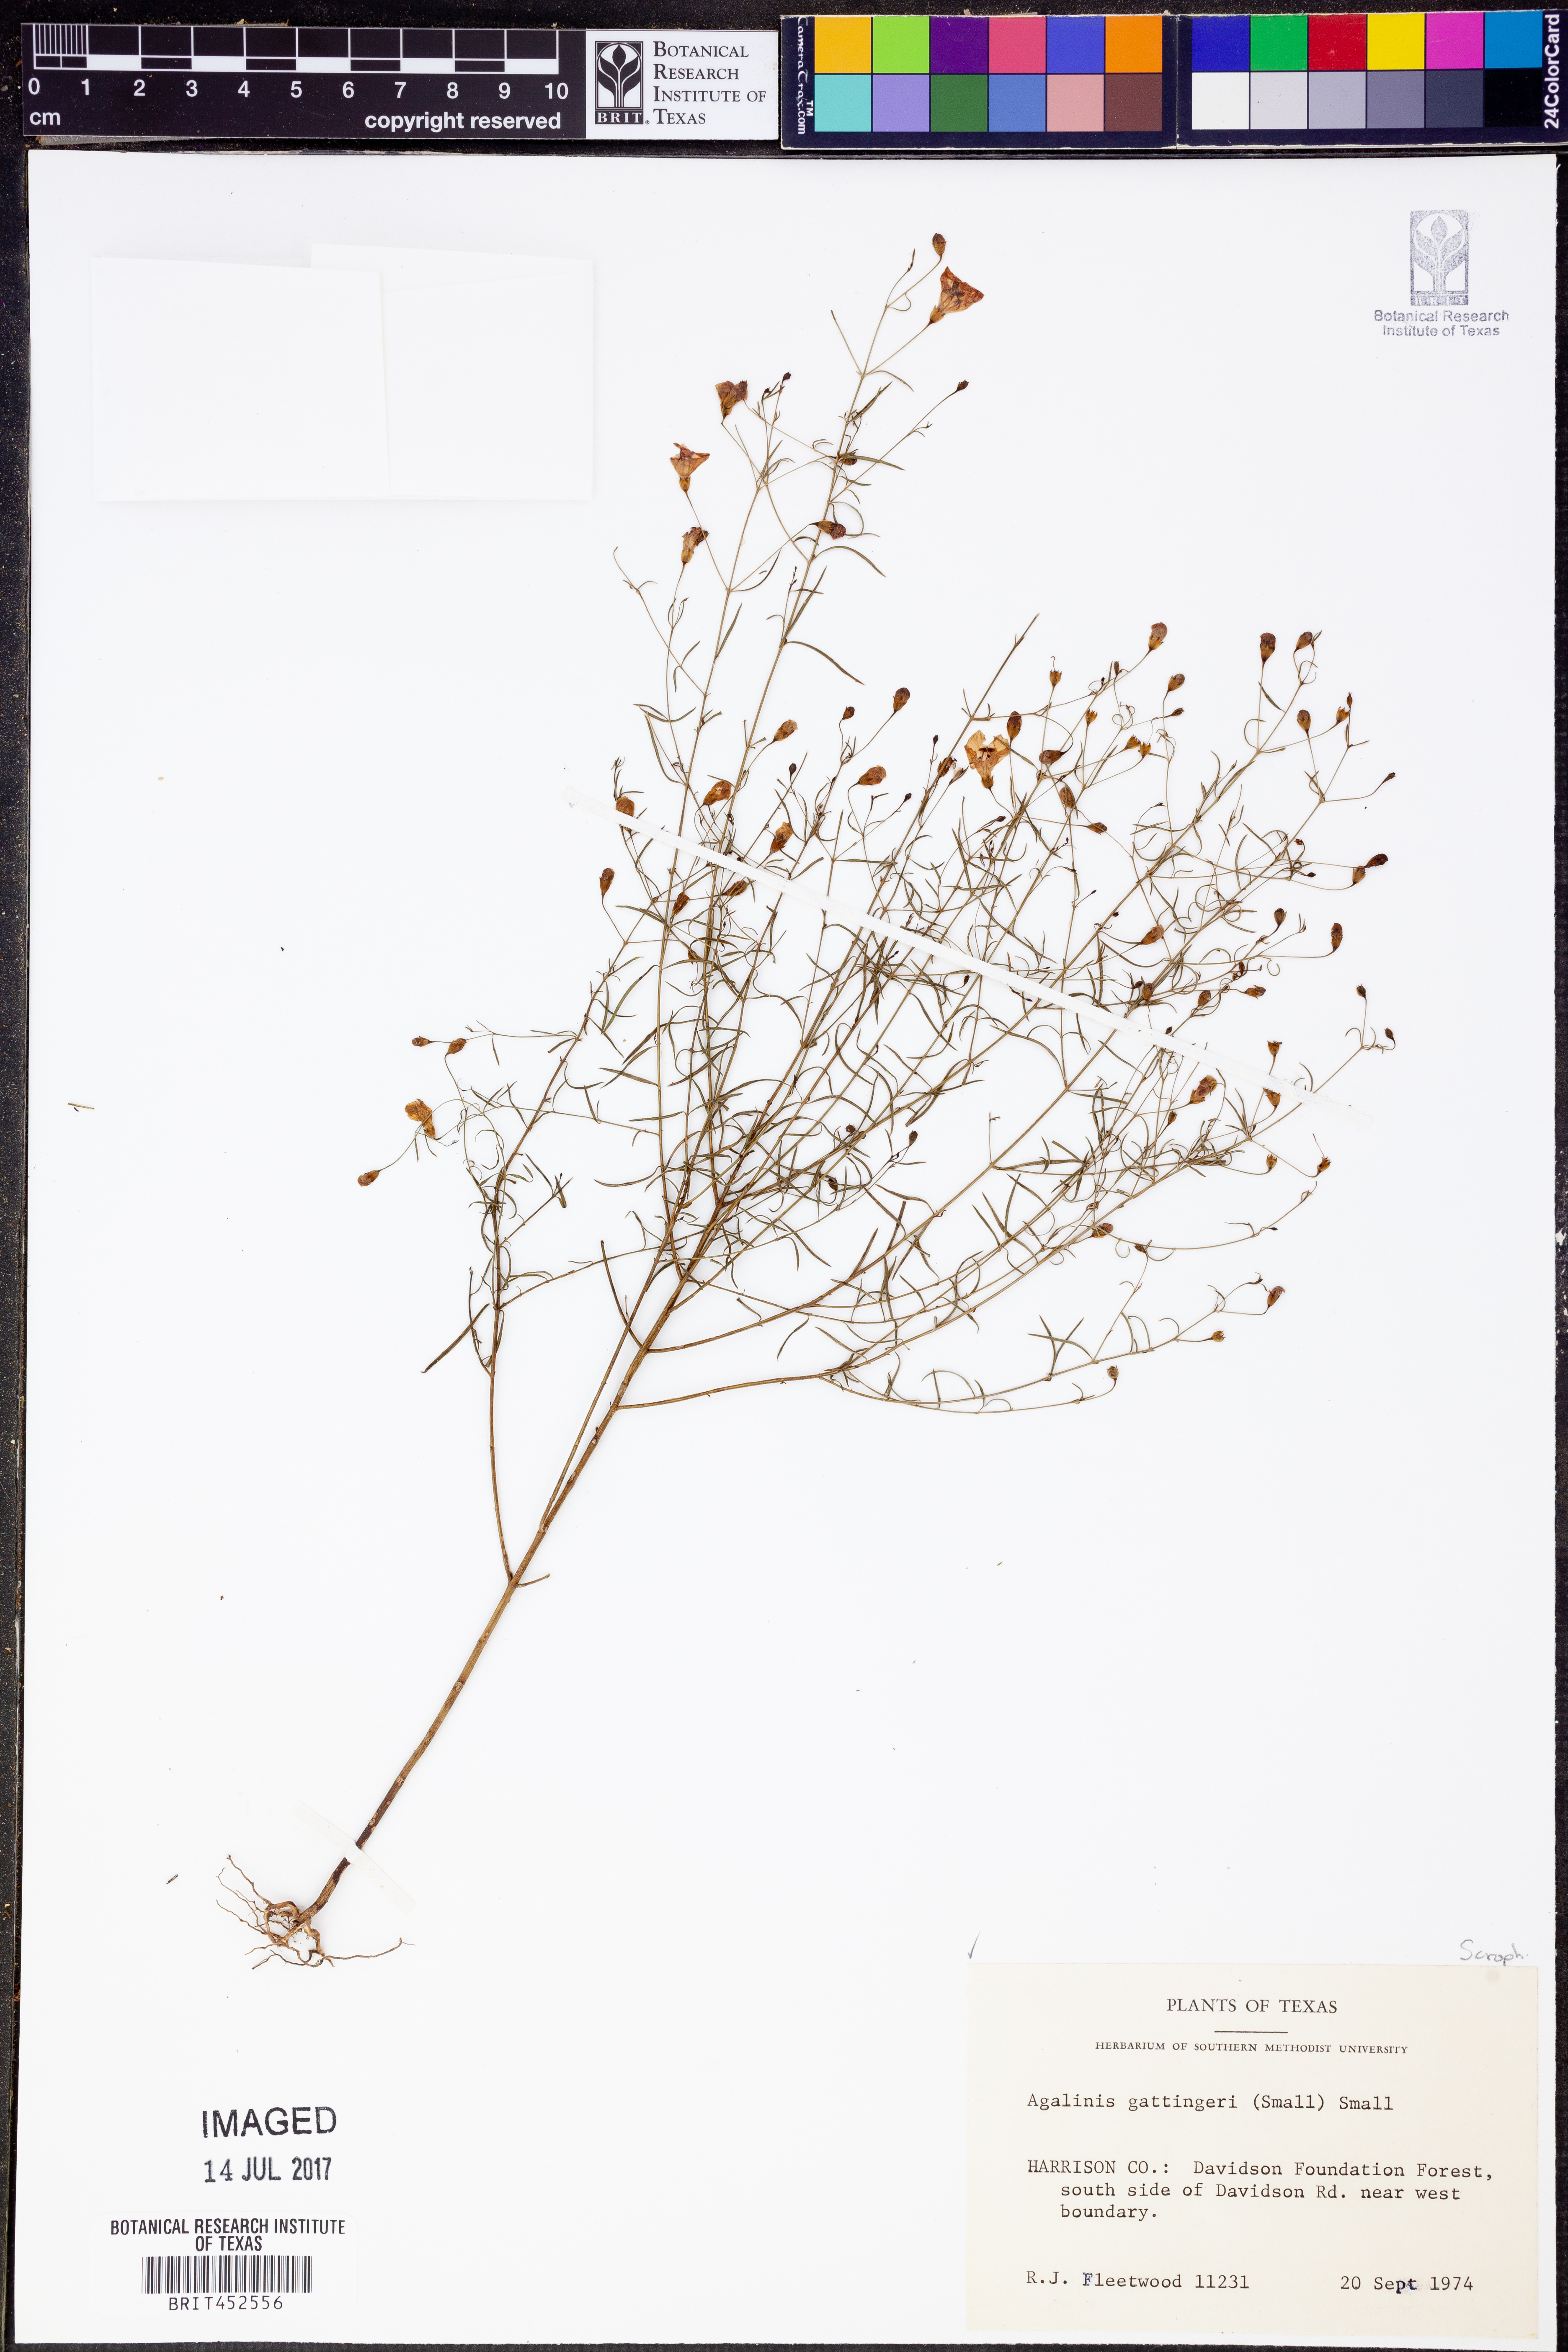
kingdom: Plantae
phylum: Tracheophyta
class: Magnoliopsida
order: Lamiales
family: Orobanchaceae
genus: Agalinis
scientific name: Agalinis gattingeri
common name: Gattinger's agalinis
